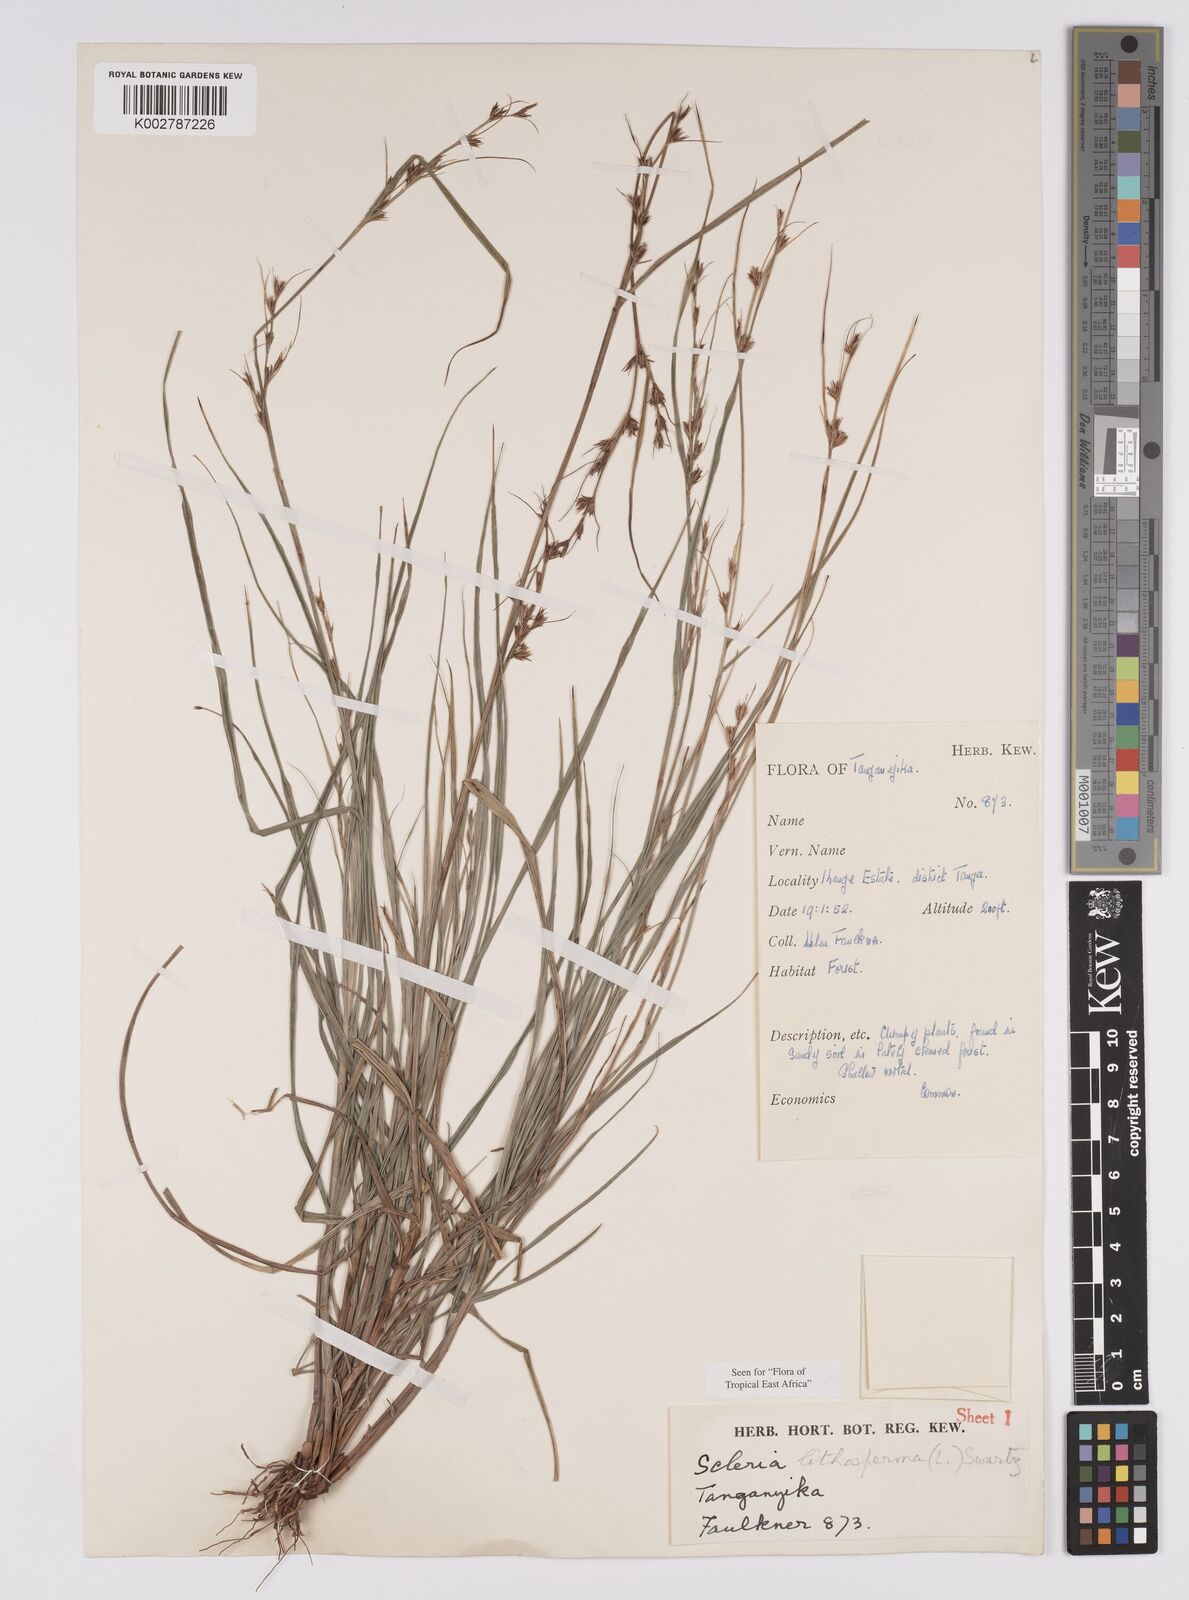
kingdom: Plantae
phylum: Tracheophyta
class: Liliopsida
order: Poales
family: Cyperaceae
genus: Scleria
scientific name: Scleria lithosperma
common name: Florida keys nut-rush
